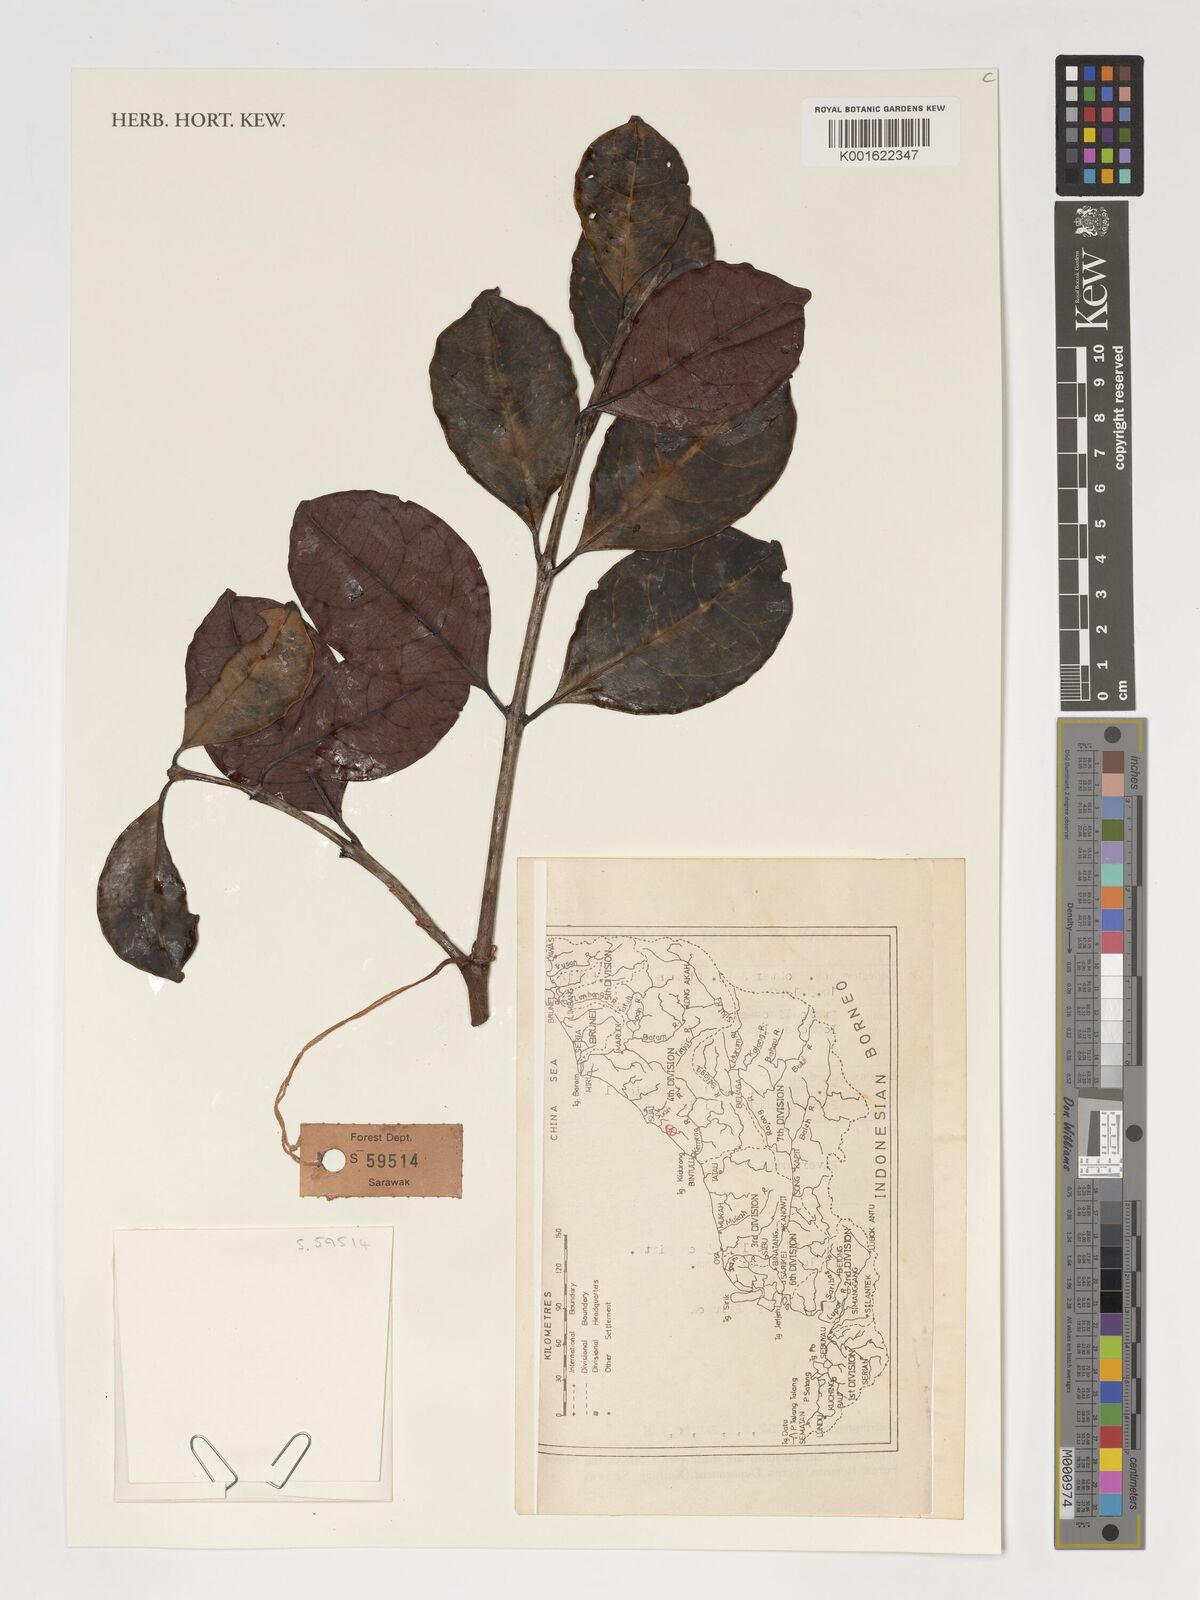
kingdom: Plantae
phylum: Tracheophyta
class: Magnoliopsida
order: Celastrales
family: Celastraceae
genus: Lophopetalum
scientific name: Lophopetalum
